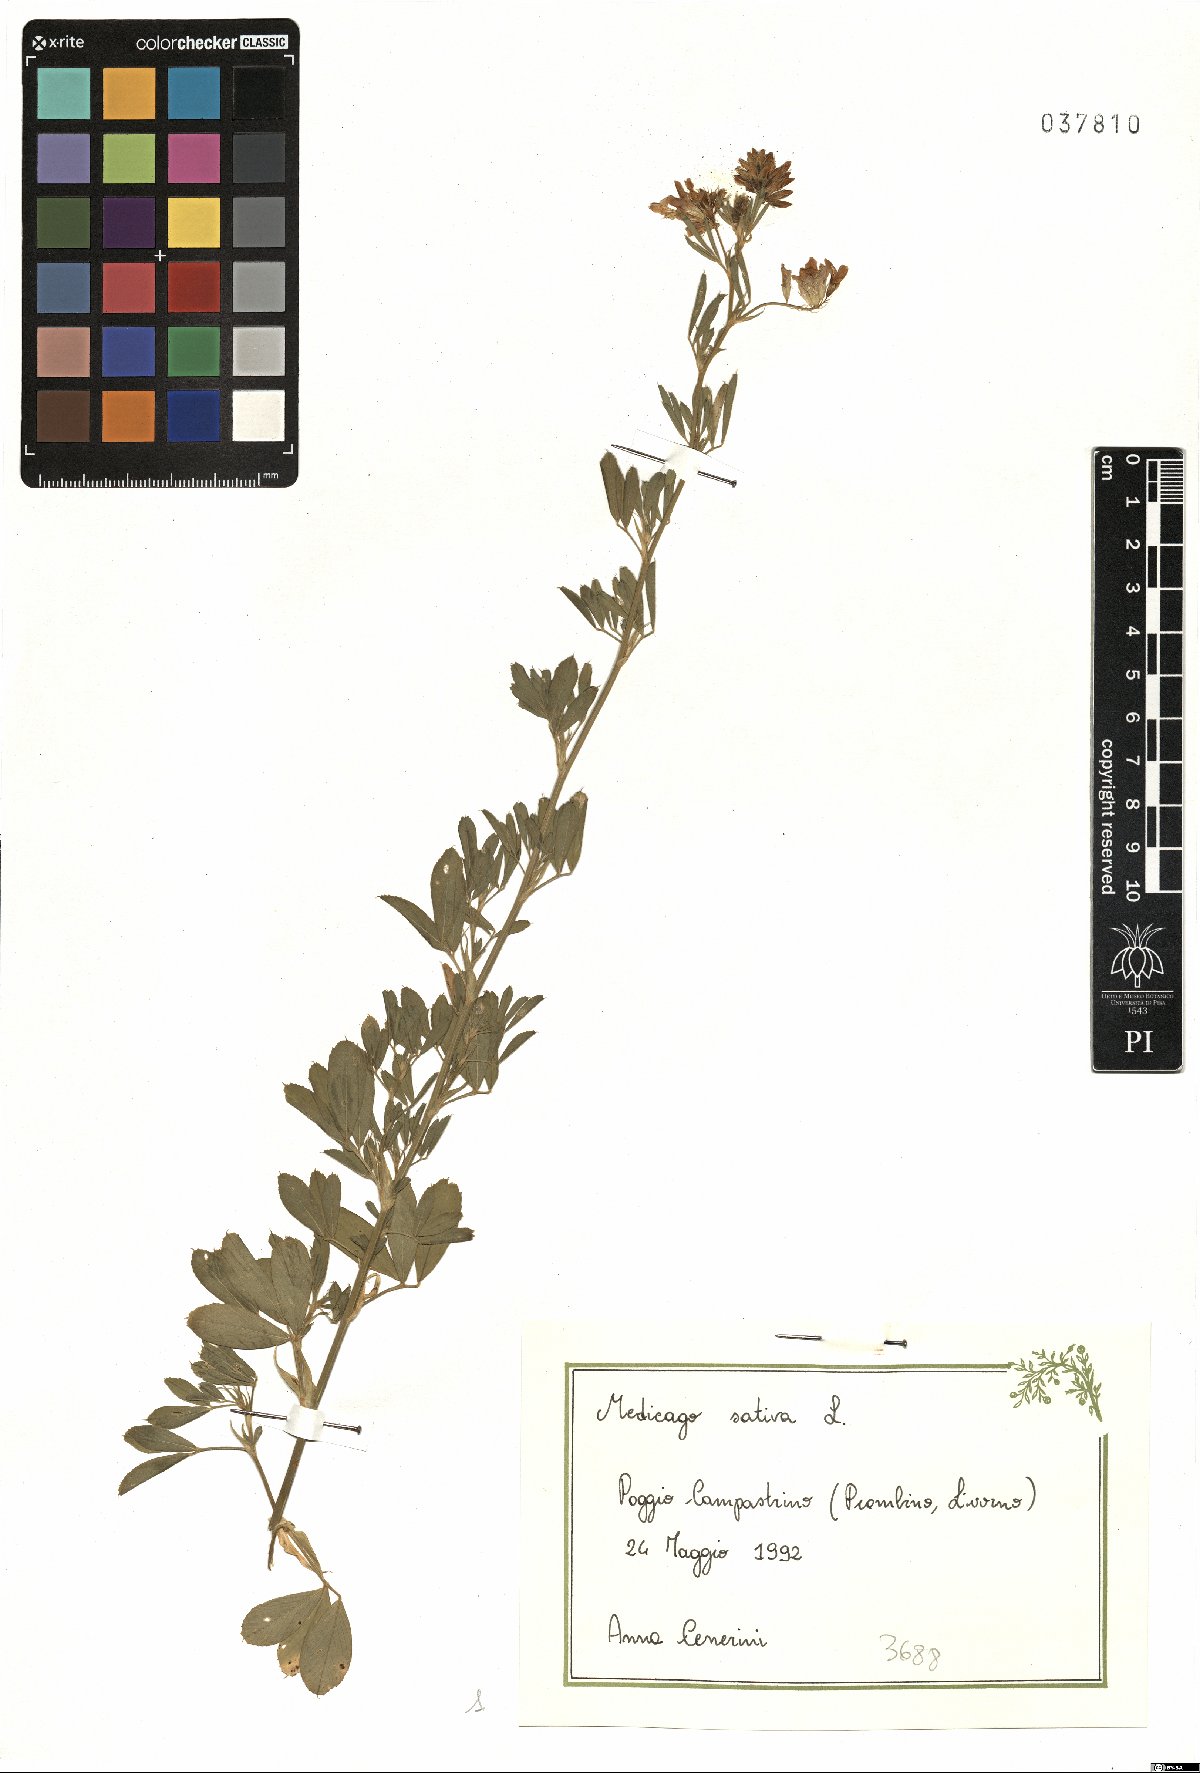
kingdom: Plantae
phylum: Tracheophyta
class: Magnoliopsida
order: Fabales
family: Fabaceae
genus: Medicago
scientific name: Medicago sativa
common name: Alfalfa
